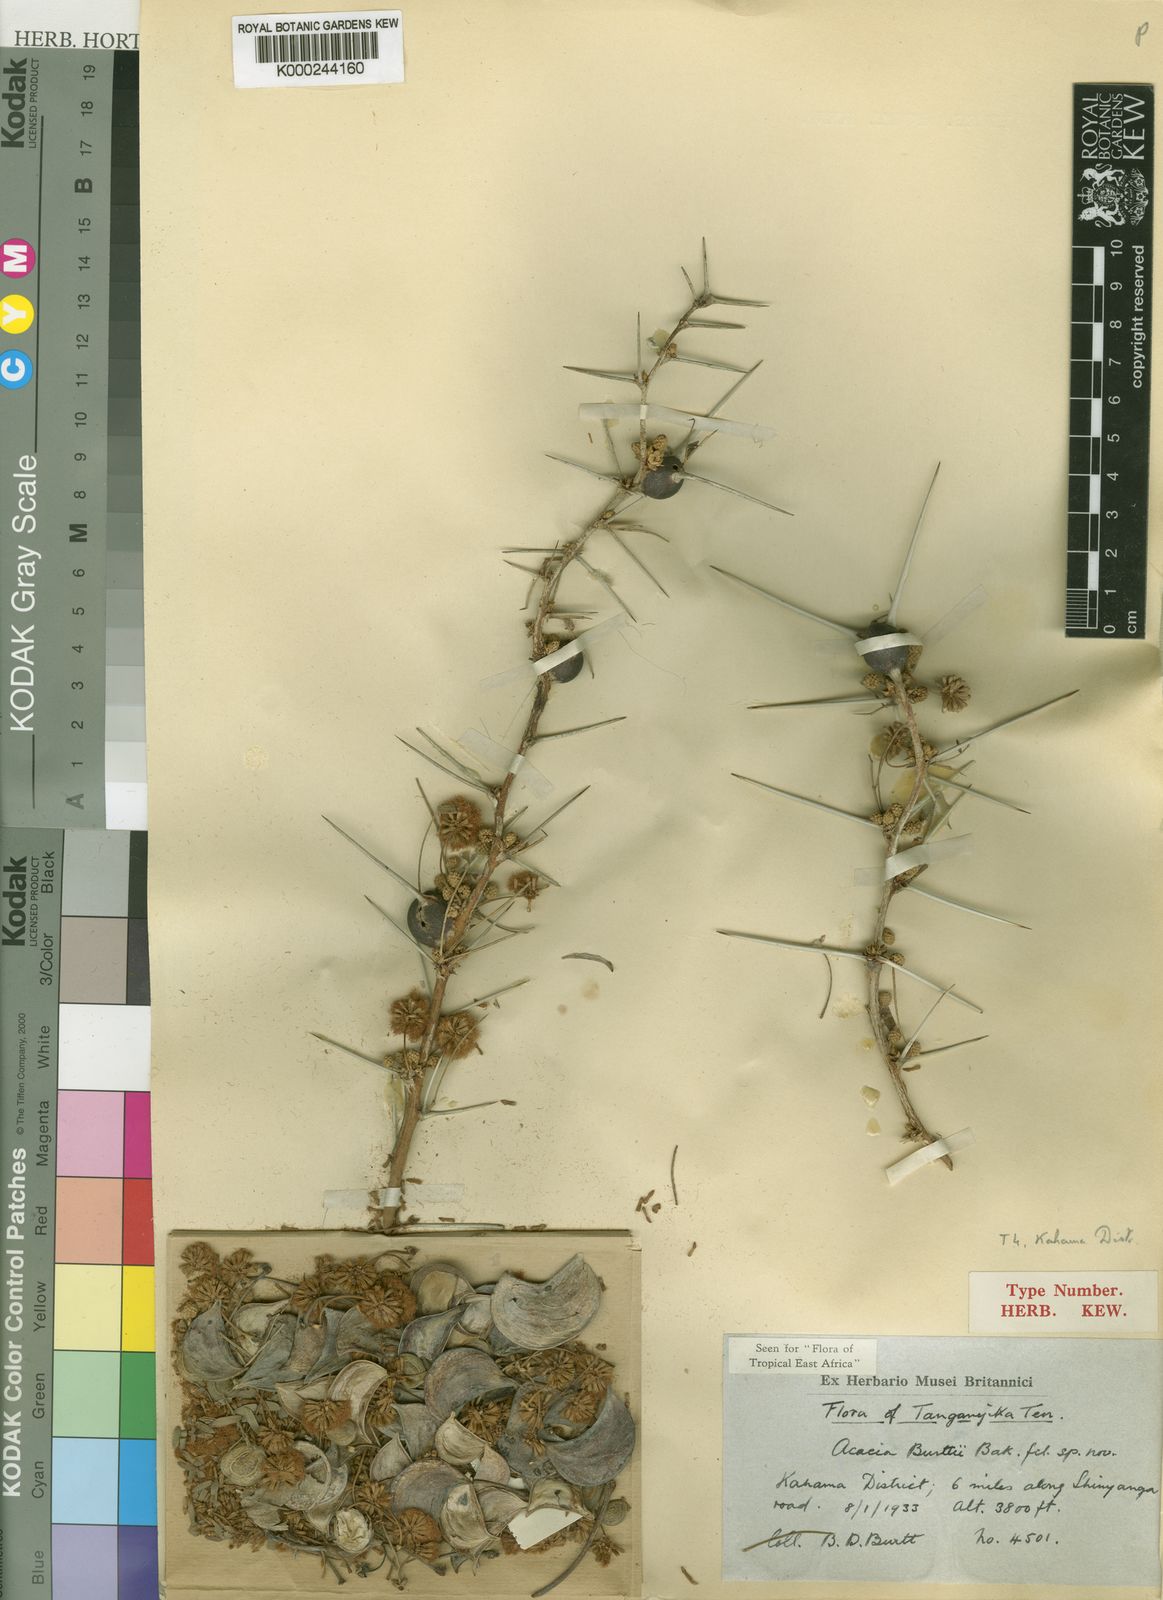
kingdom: Plantae
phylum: Tracheophyta
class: Magnoliopsida
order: Fabales
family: Fabaceae
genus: Vachellia
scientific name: Vachellia burttii
